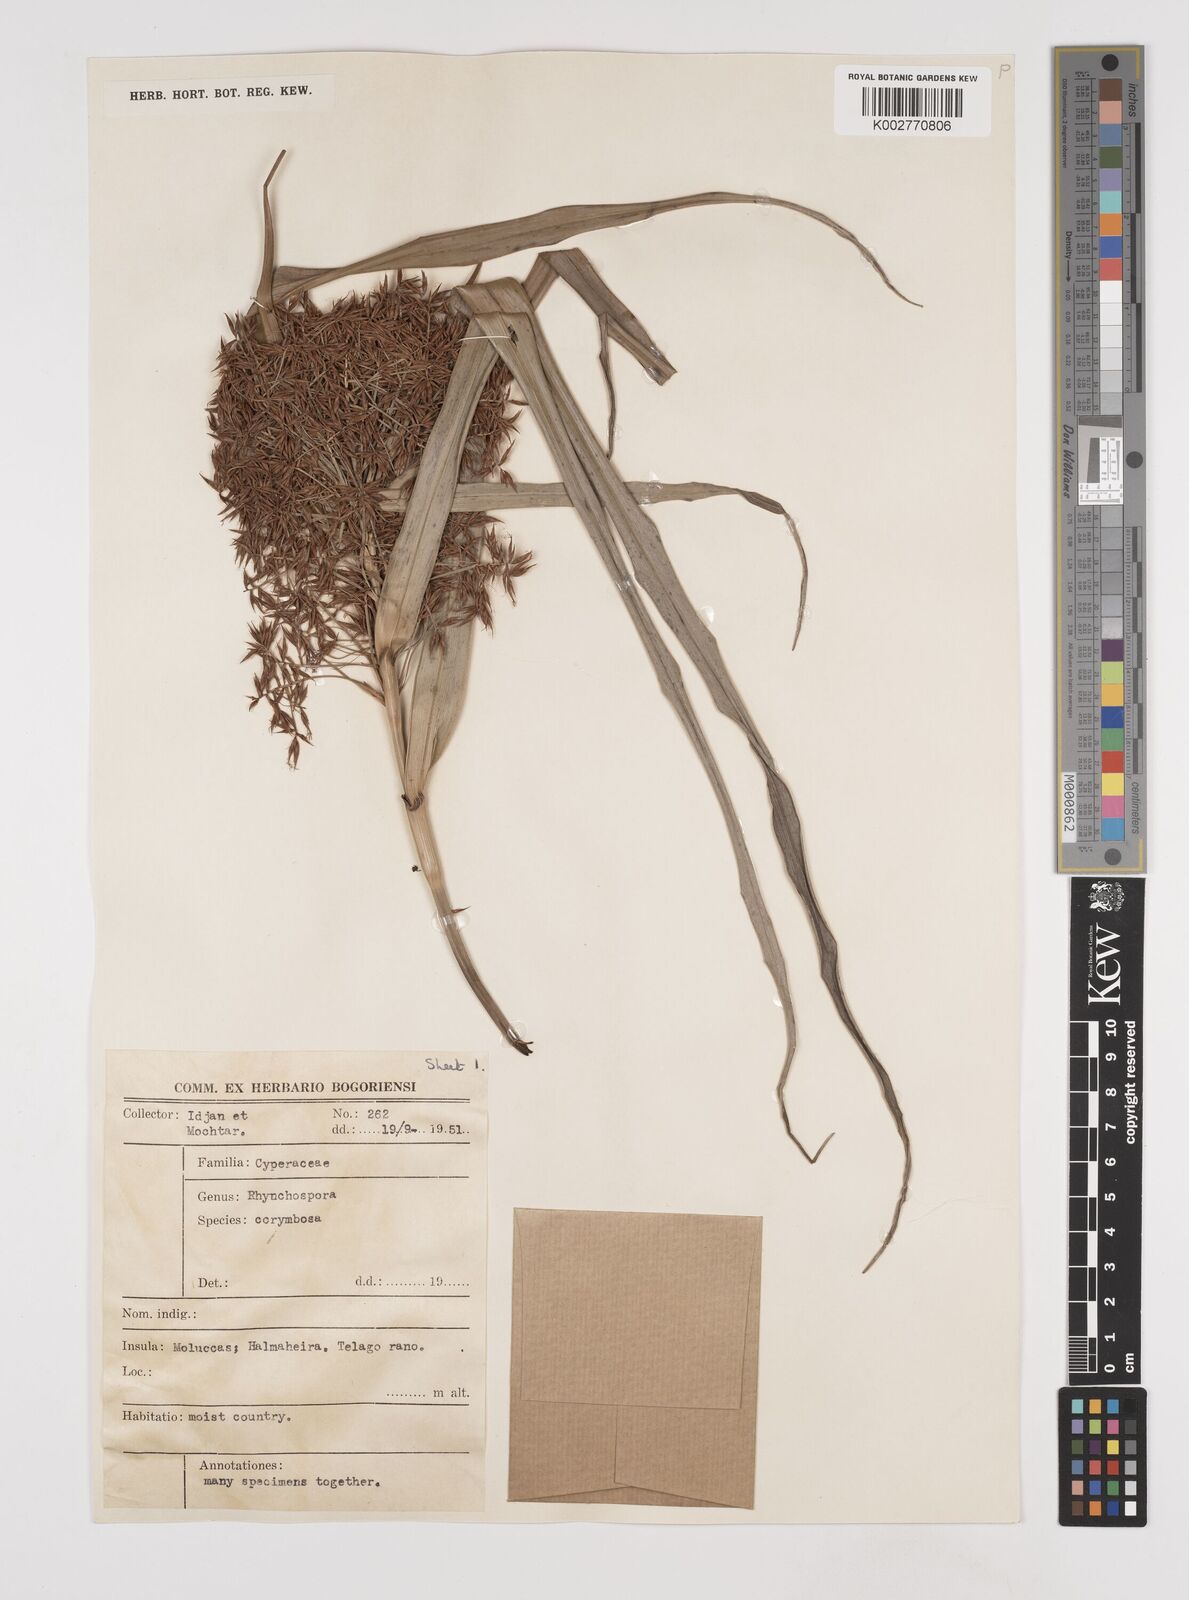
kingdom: Plantae
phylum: Tracheophyta
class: Liliopsida
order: Poales
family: Cyperaceae
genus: Rhynchospora
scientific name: Rhynchospora corymbosa
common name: Golden beak sedge
